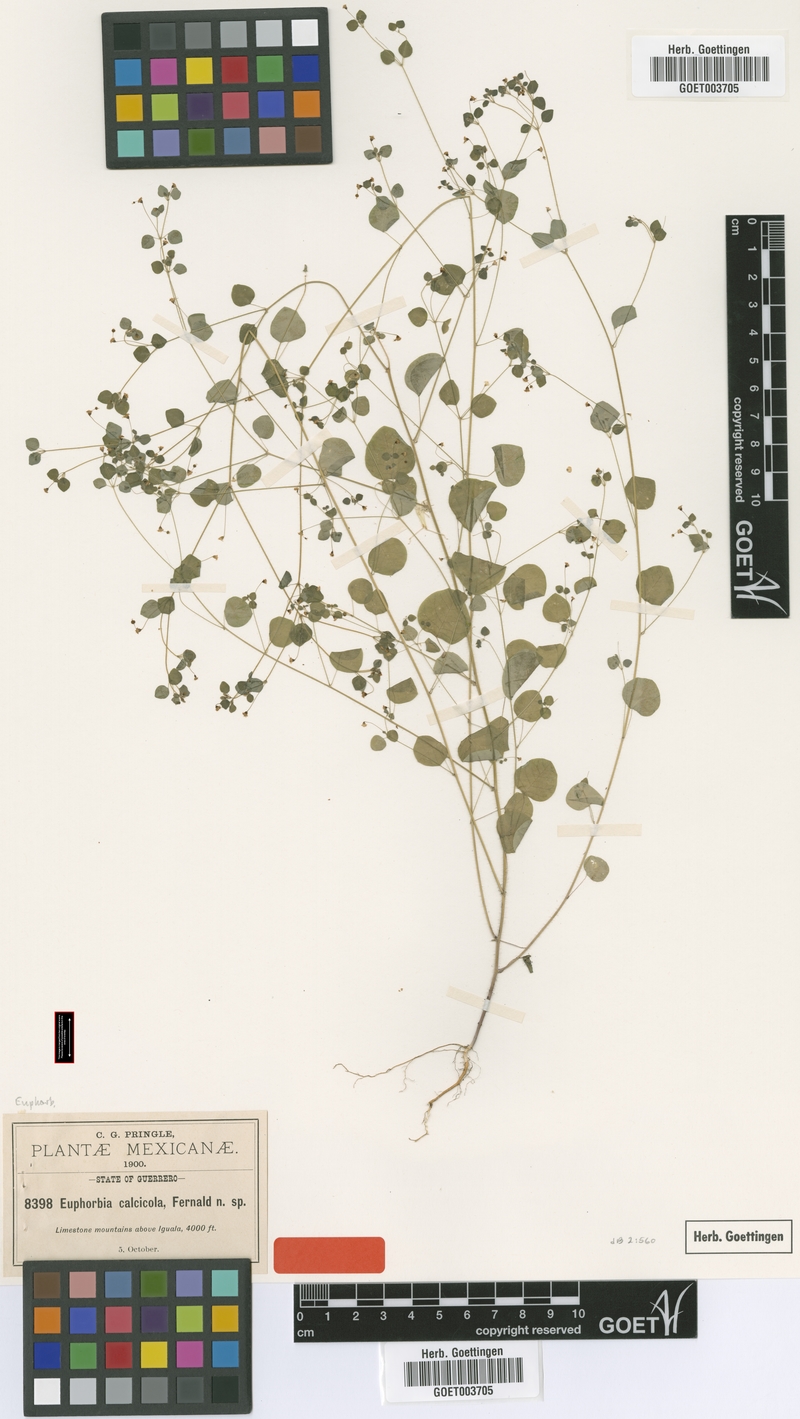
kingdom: Plantae
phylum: Tracheophyta
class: Magnoliopsida
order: Malpighiales
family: Euphorbiaceae
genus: Euphorbia
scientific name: Euphorbia calcicola
